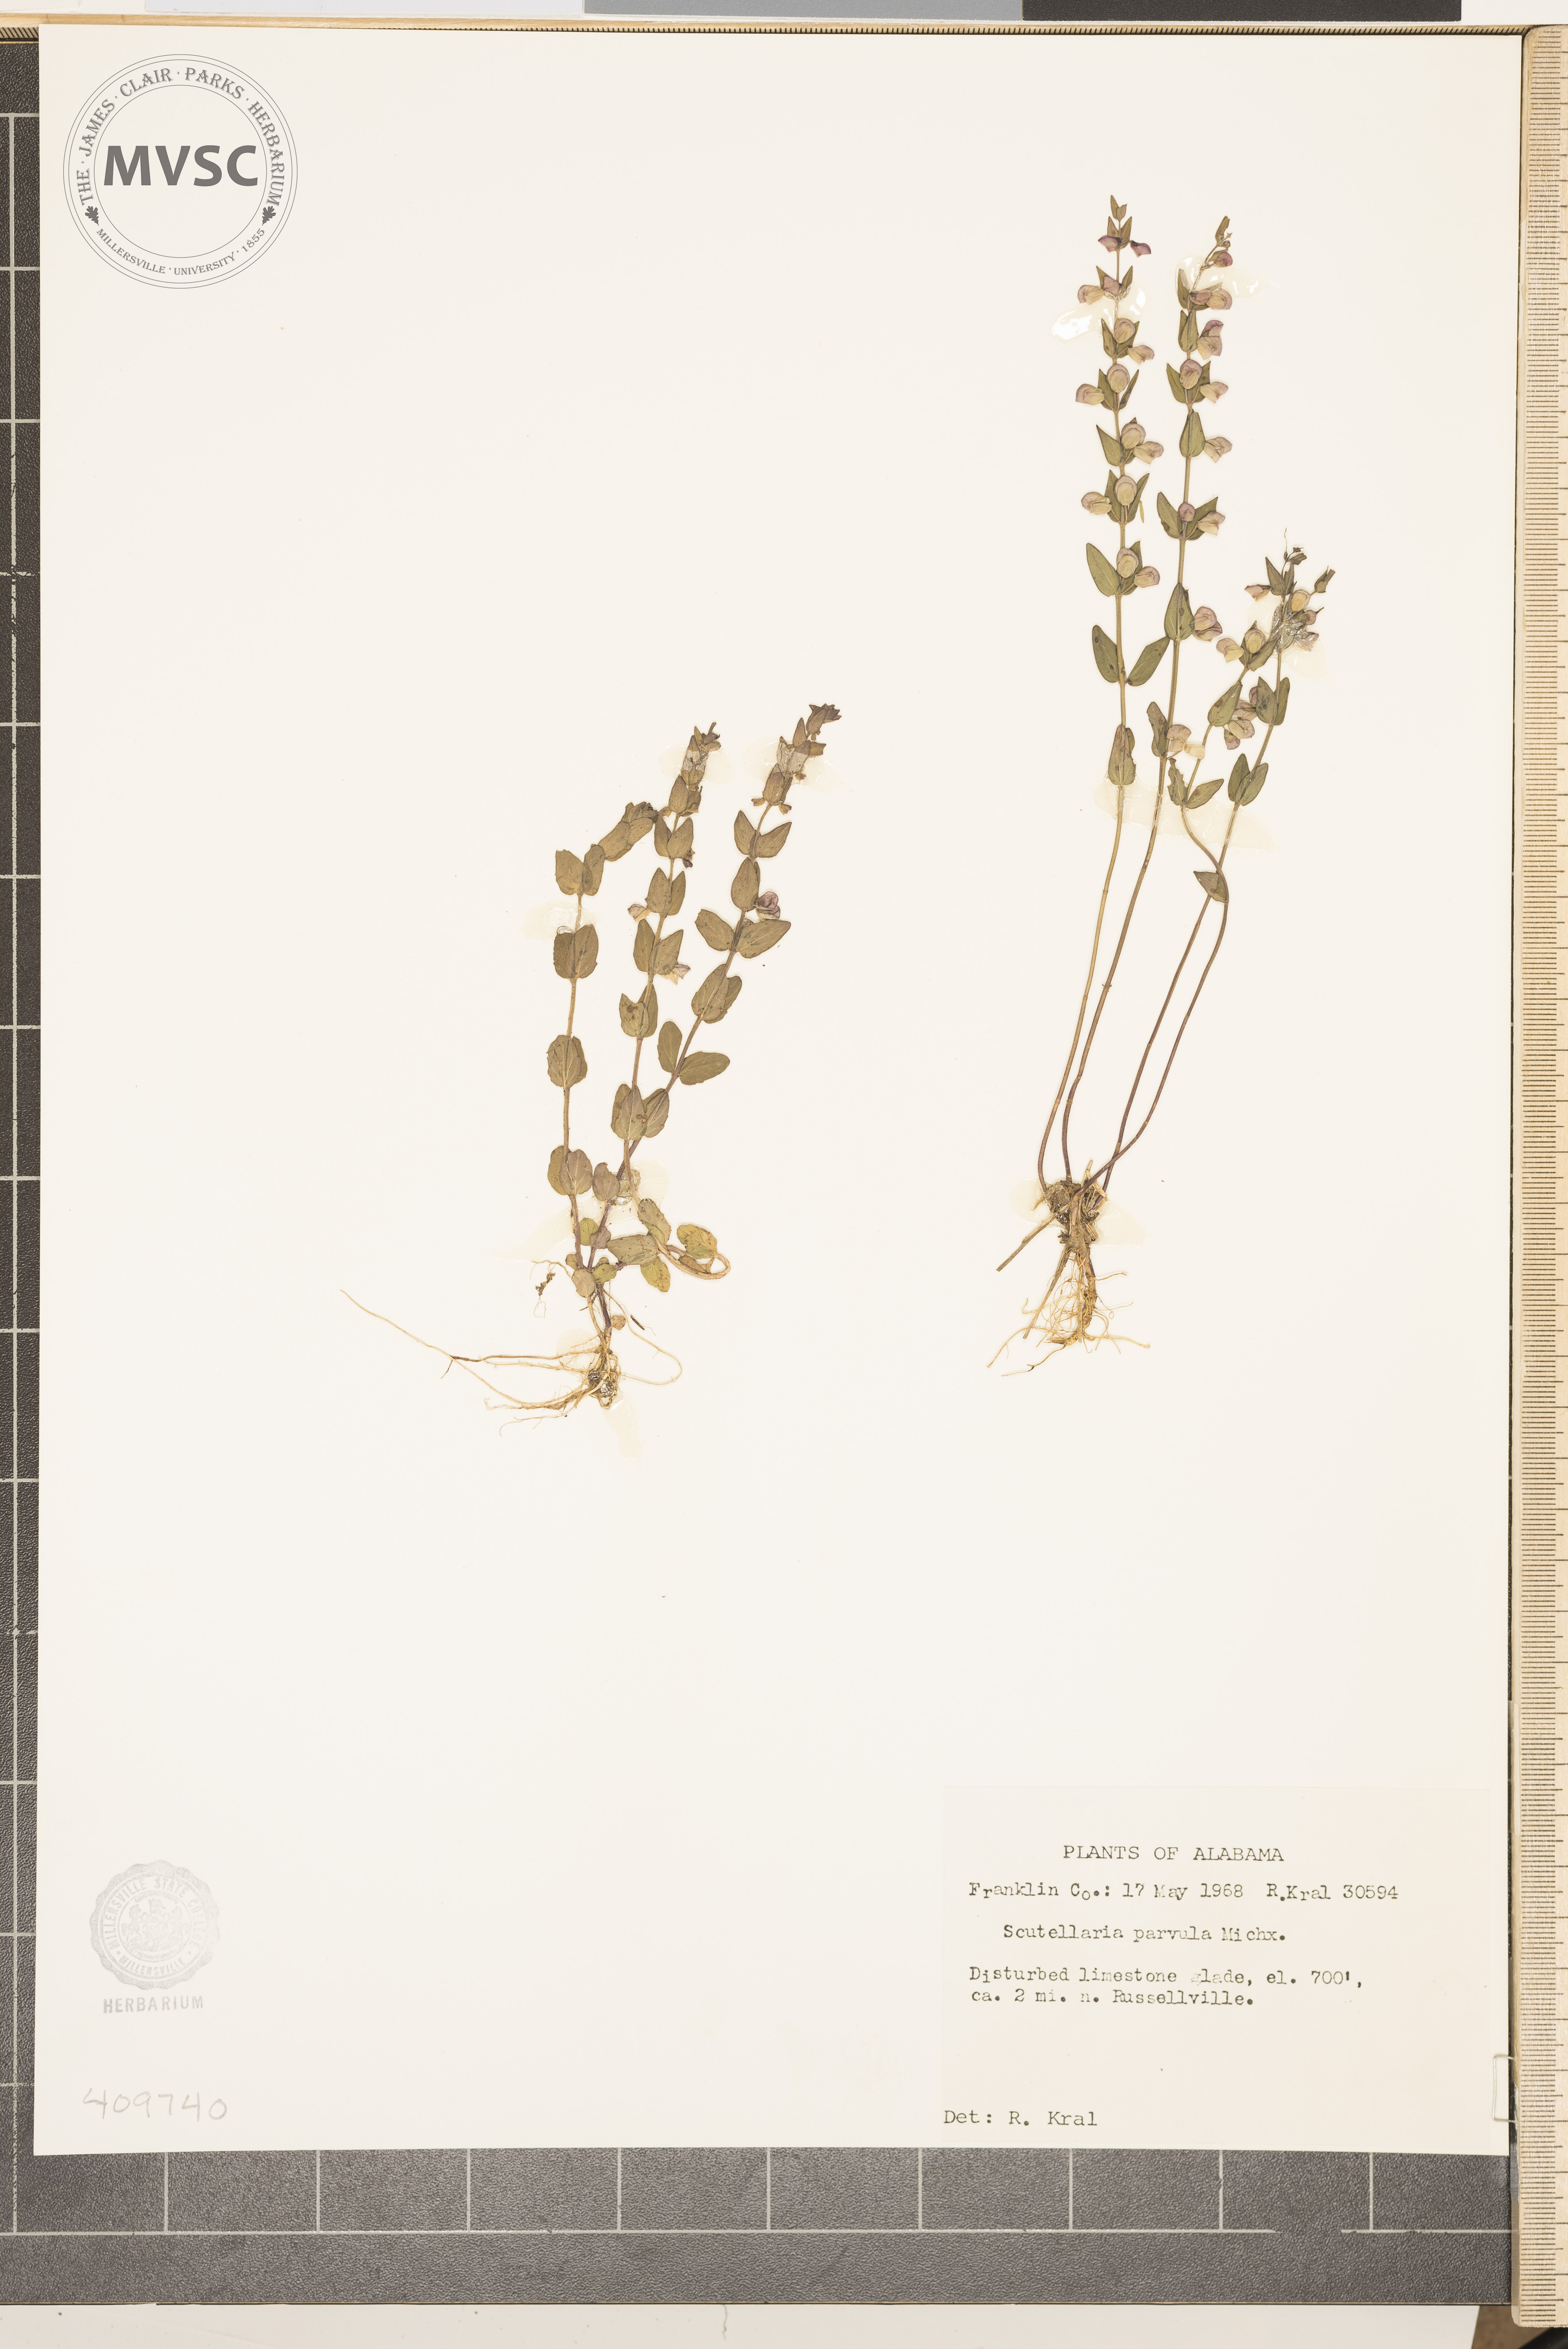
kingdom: Plantae
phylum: Tracheophyta
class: Magnoliopsida
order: Lamiales
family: Lamiaceae
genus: Scutellaria
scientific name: Scutellaria parvula
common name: Little scullcap
